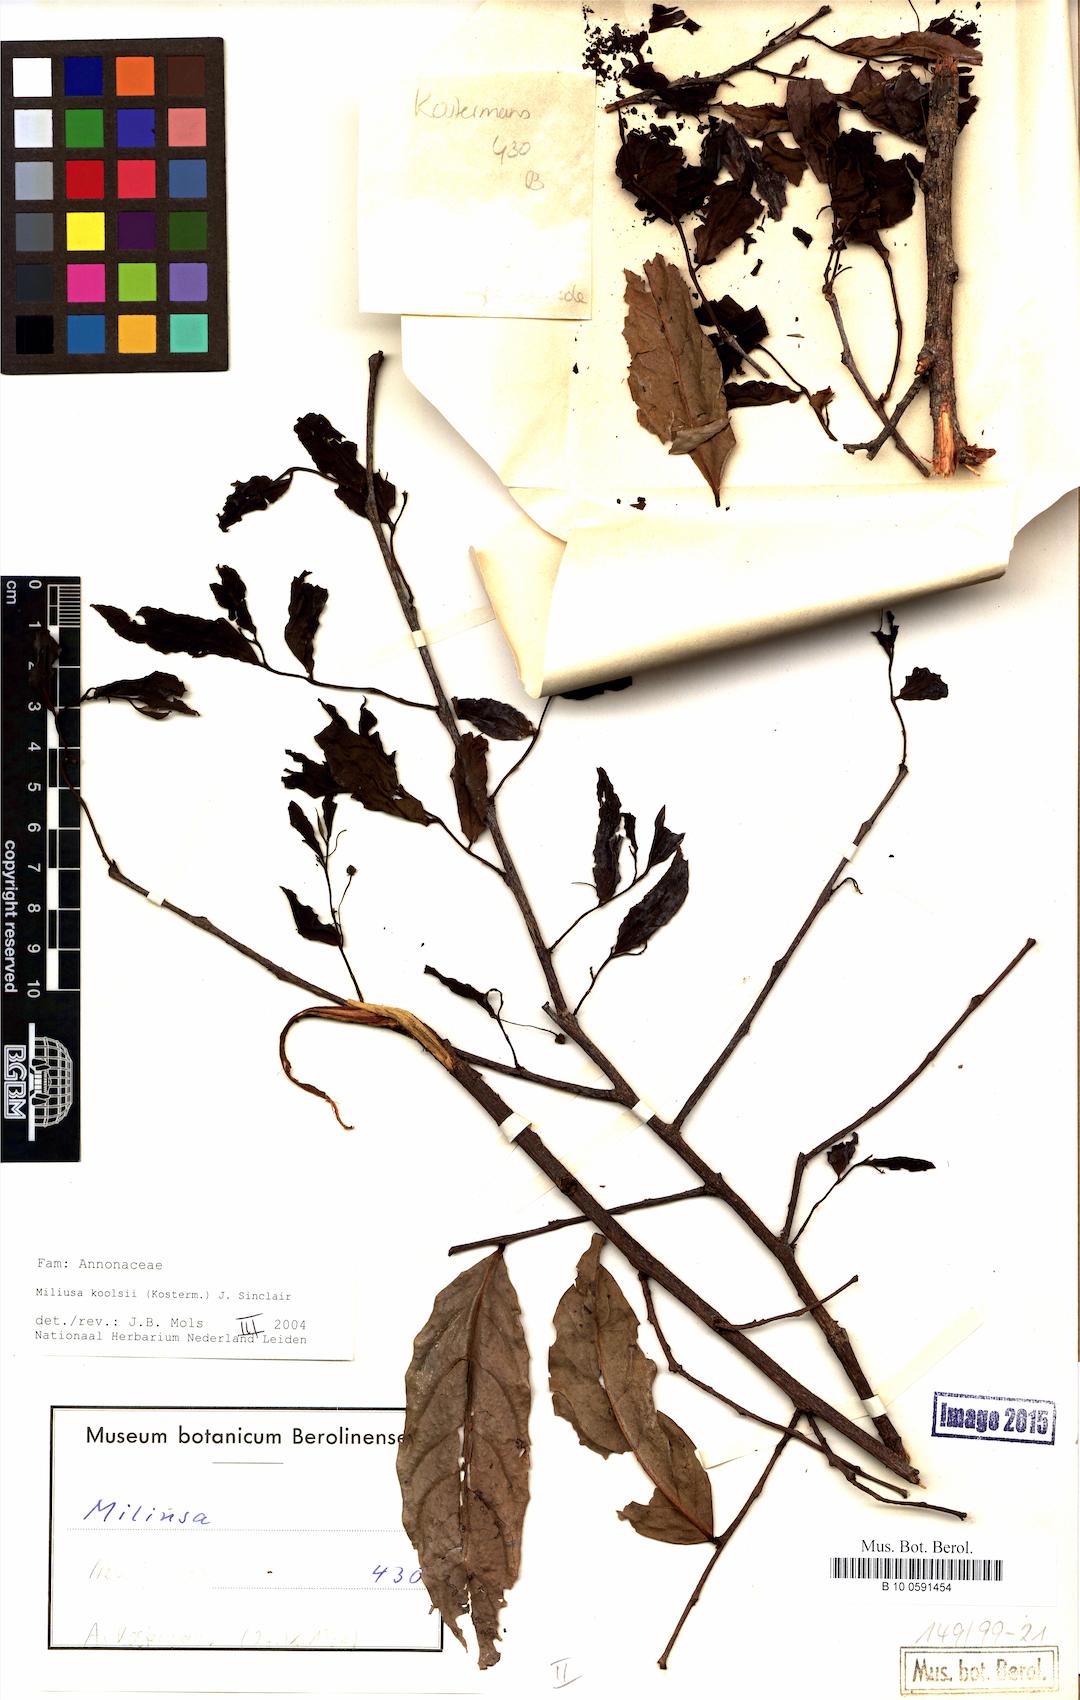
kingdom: Plantae
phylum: Tracheophyta
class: Magnoliopsida
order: Magnoliales
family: Annonaceae
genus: Miliusa
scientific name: Miliusa koolsii
